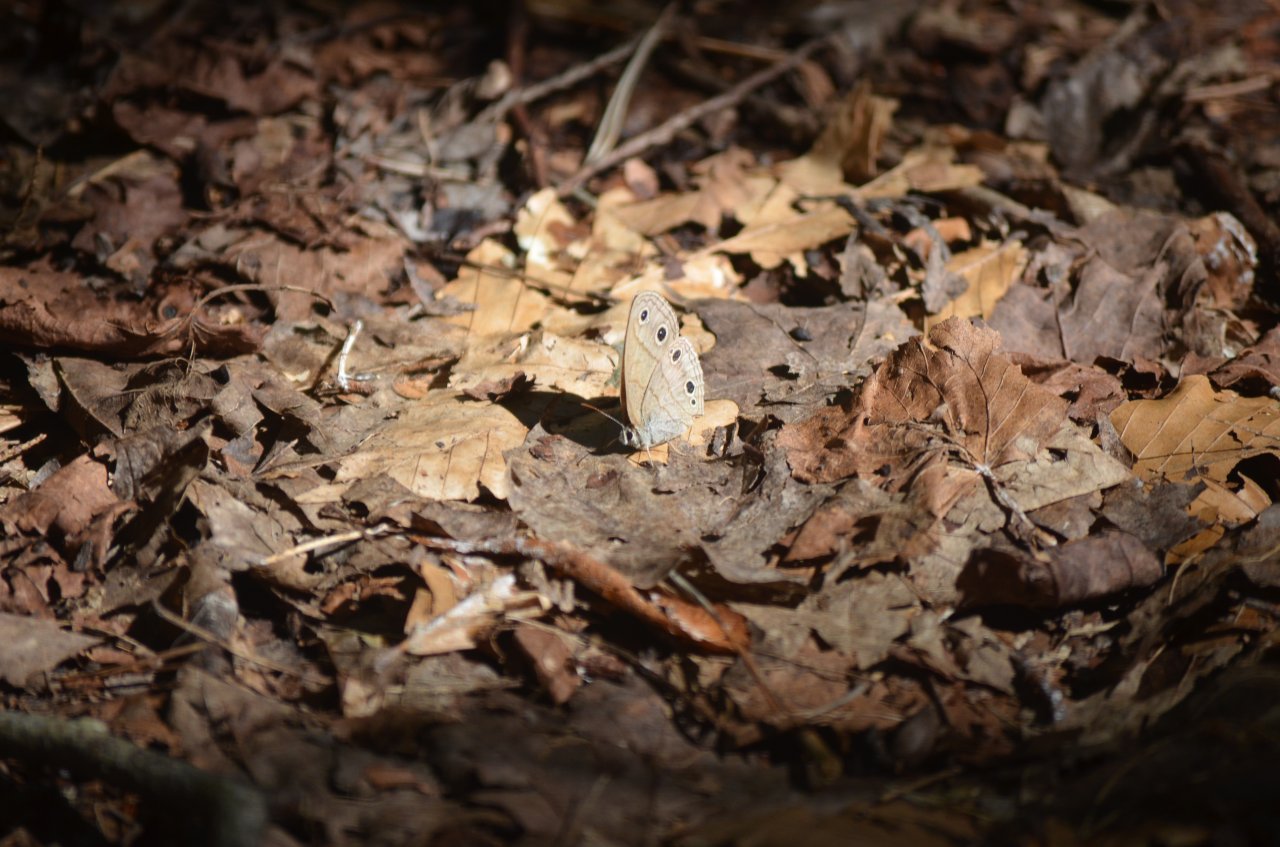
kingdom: Animalia
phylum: Arthropoda
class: Insecta
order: Lepidoptera
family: Nymphalidae
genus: Euptychia
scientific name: Euptychia cymela
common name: Little Wood Satyr
